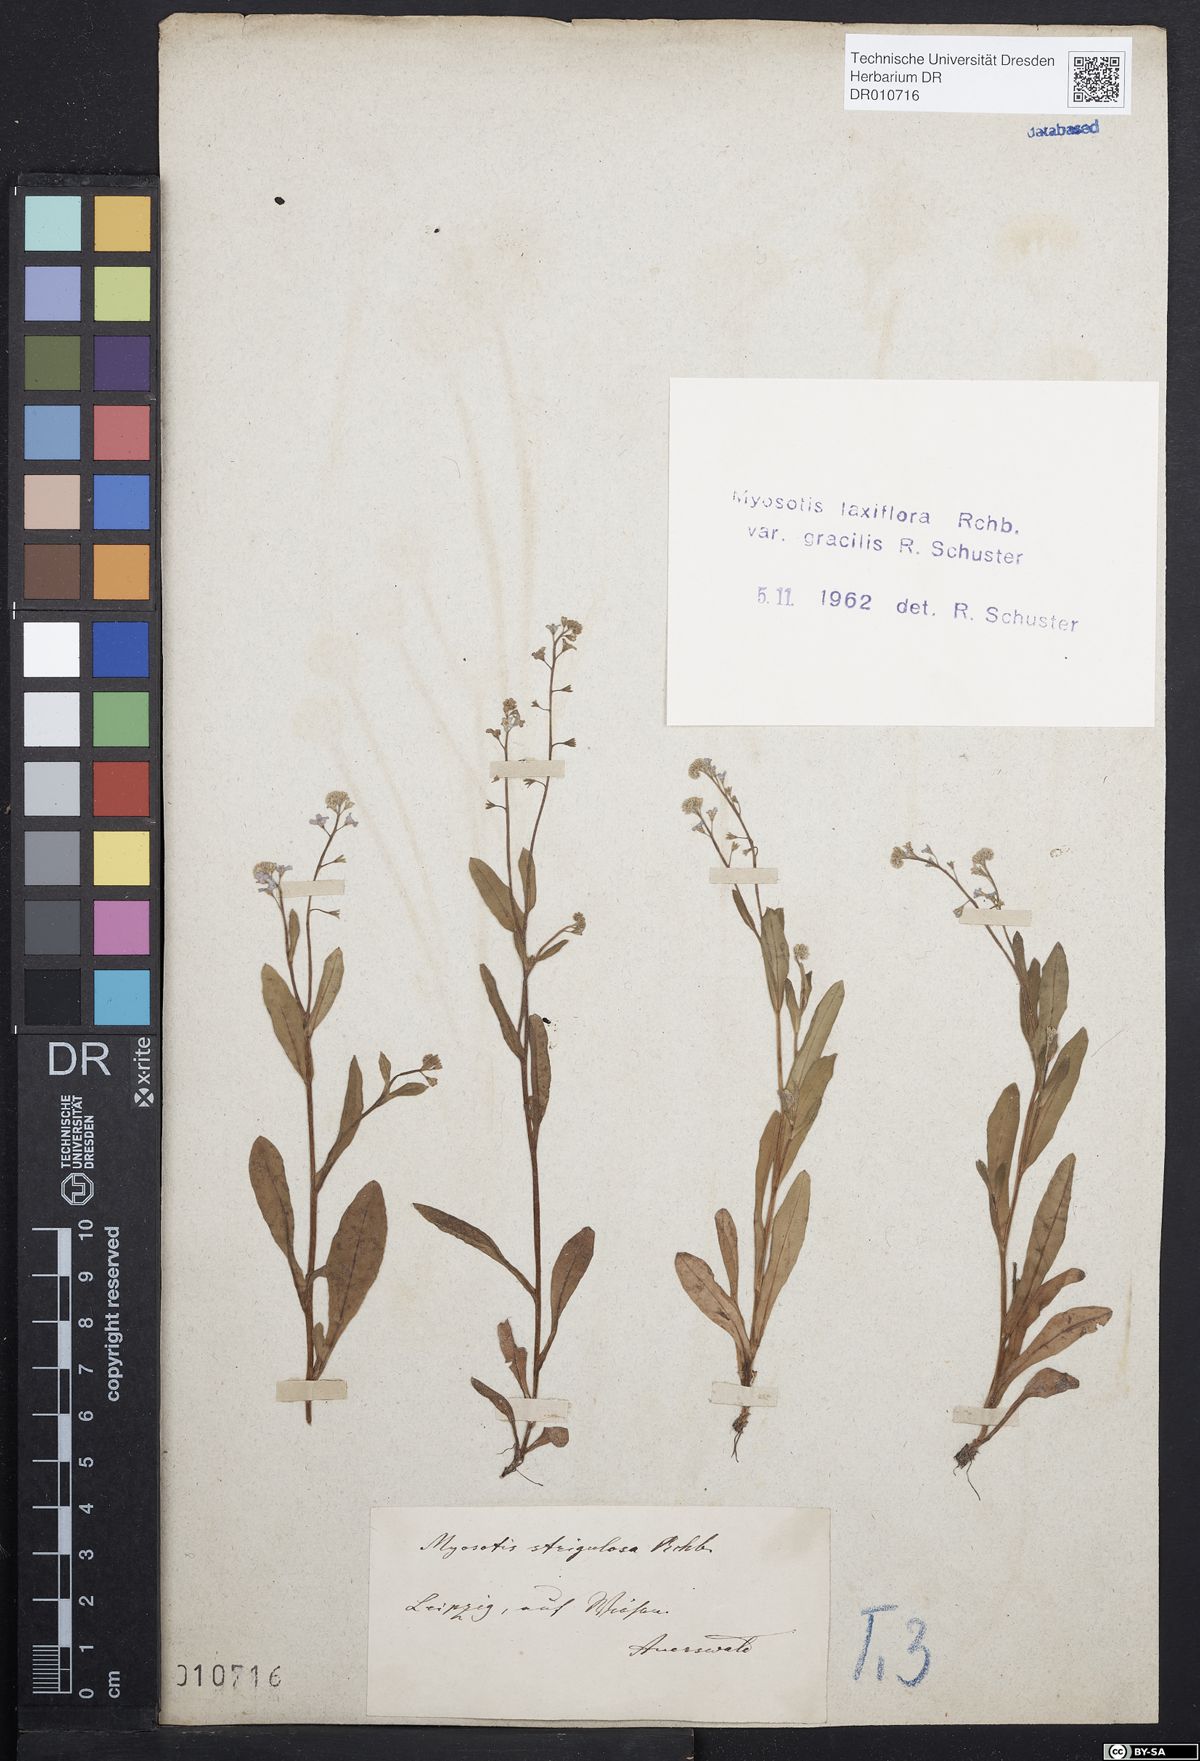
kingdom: Plantae
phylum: Tracheophyta
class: Magnoliopsida
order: Boraginales
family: Boraginaceae
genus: Myosotis
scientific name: Myosotis scorpioides
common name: Water forget-me-not
